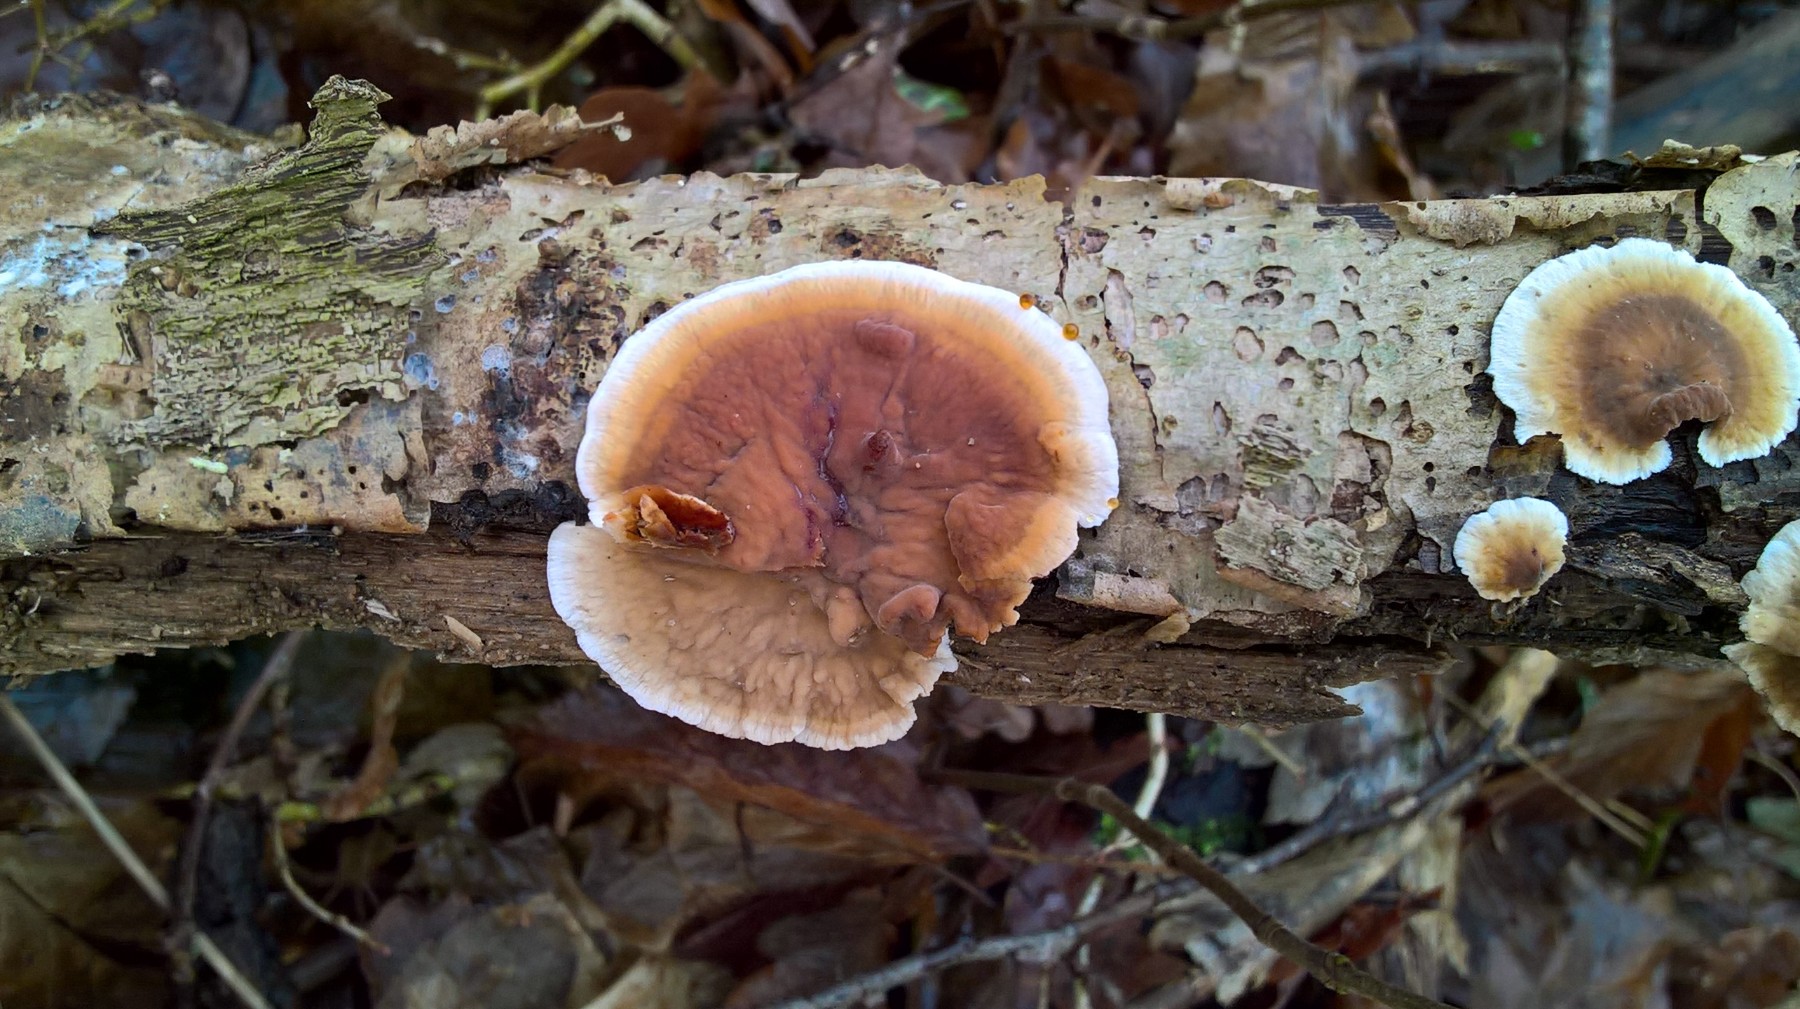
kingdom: Fungi
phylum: Basidiomycota
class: Agaricomycetes
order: Russulales
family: Stereaceae
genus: Stereum
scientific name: Stereum hirsutum
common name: håret lædersvamp
